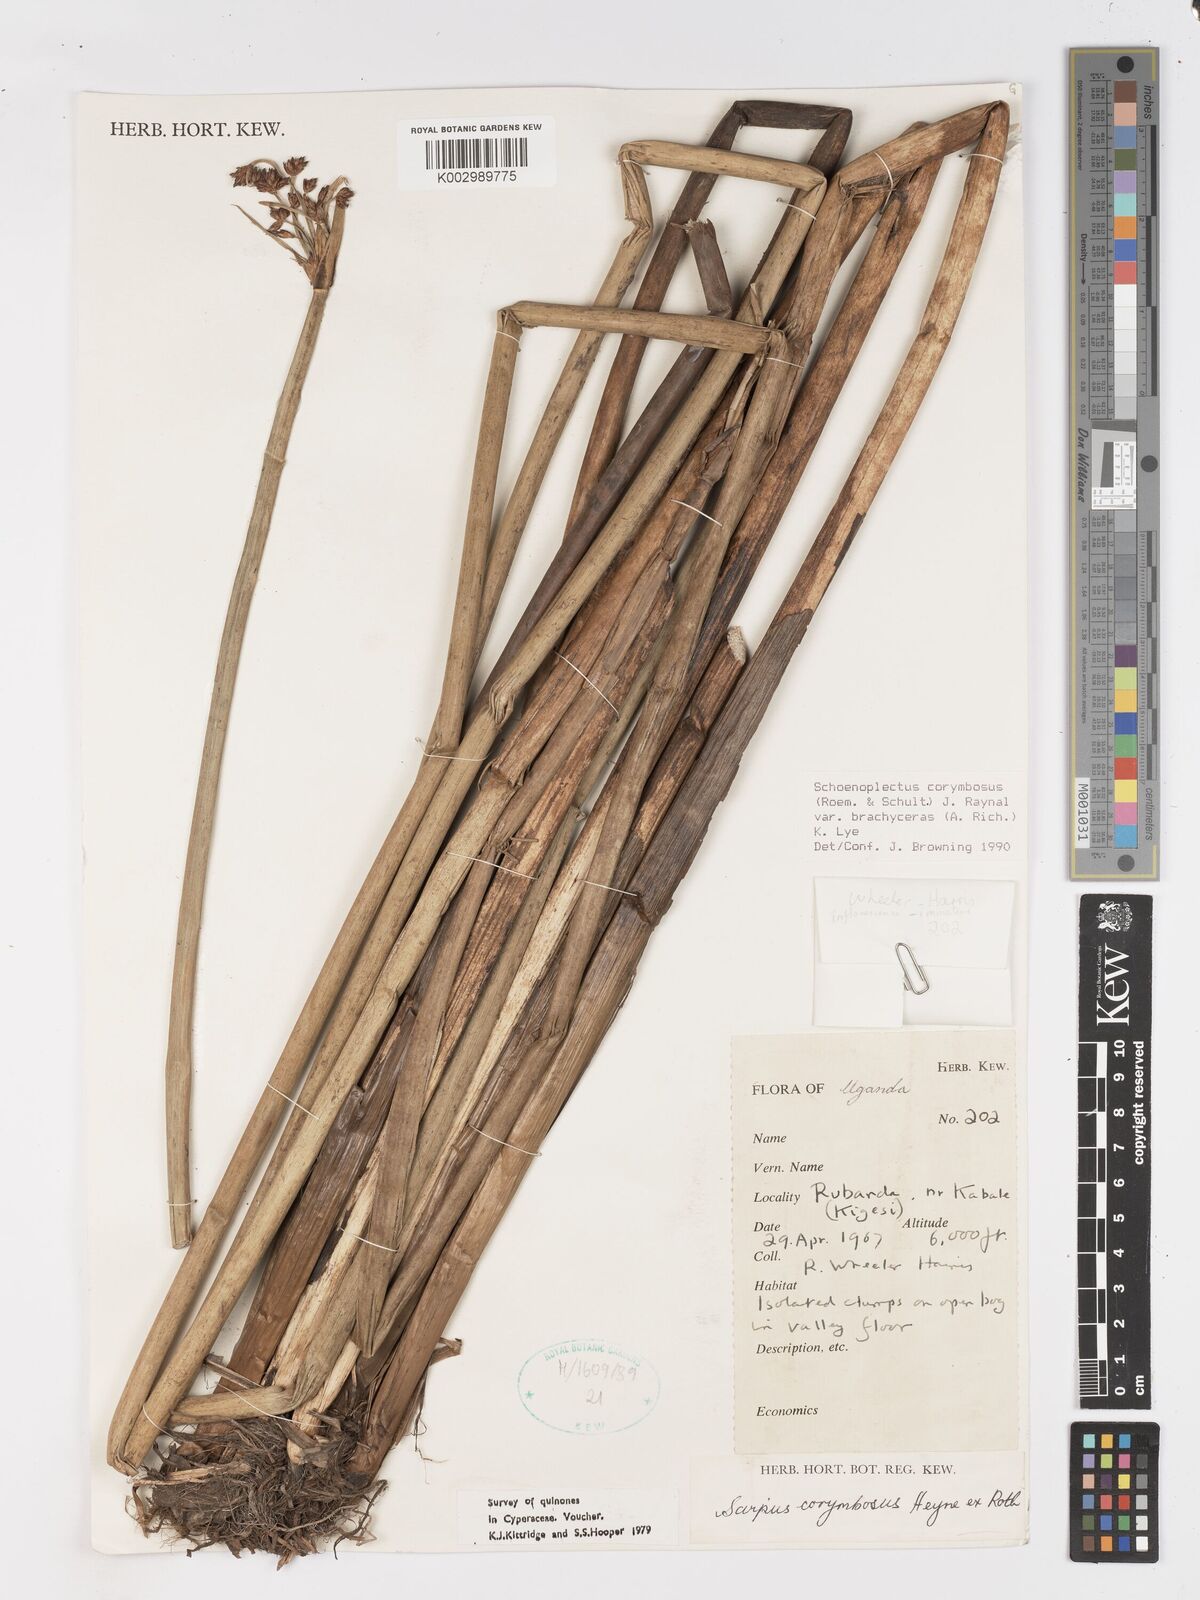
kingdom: Plantae
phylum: Tracheophyta
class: Liliopsida
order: Poales
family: Cyperaceae
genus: Schoenoplectiella
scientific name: Schoenoplectiella brachyceras
